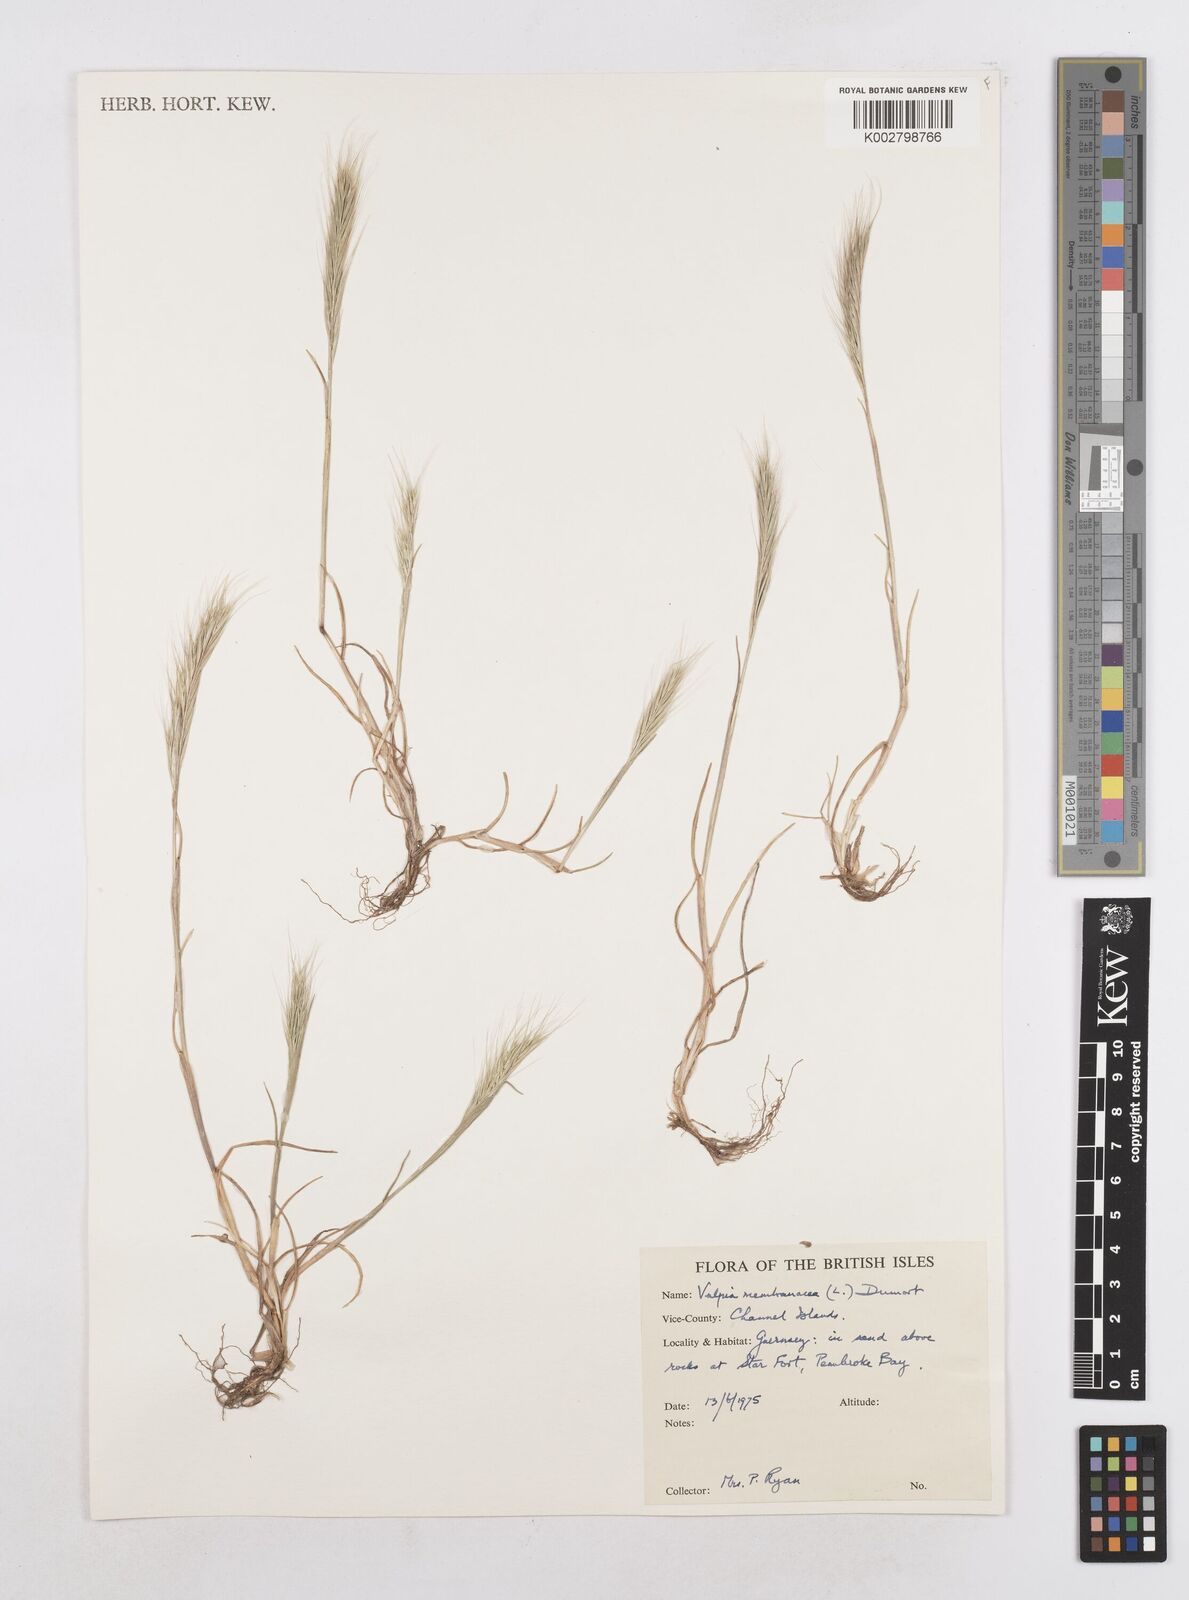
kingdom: Plantae
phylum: Tracheophyta
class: Liliopsida
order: Poales
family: Poaceae
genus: Festuca
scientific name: Festuca fasciculata
